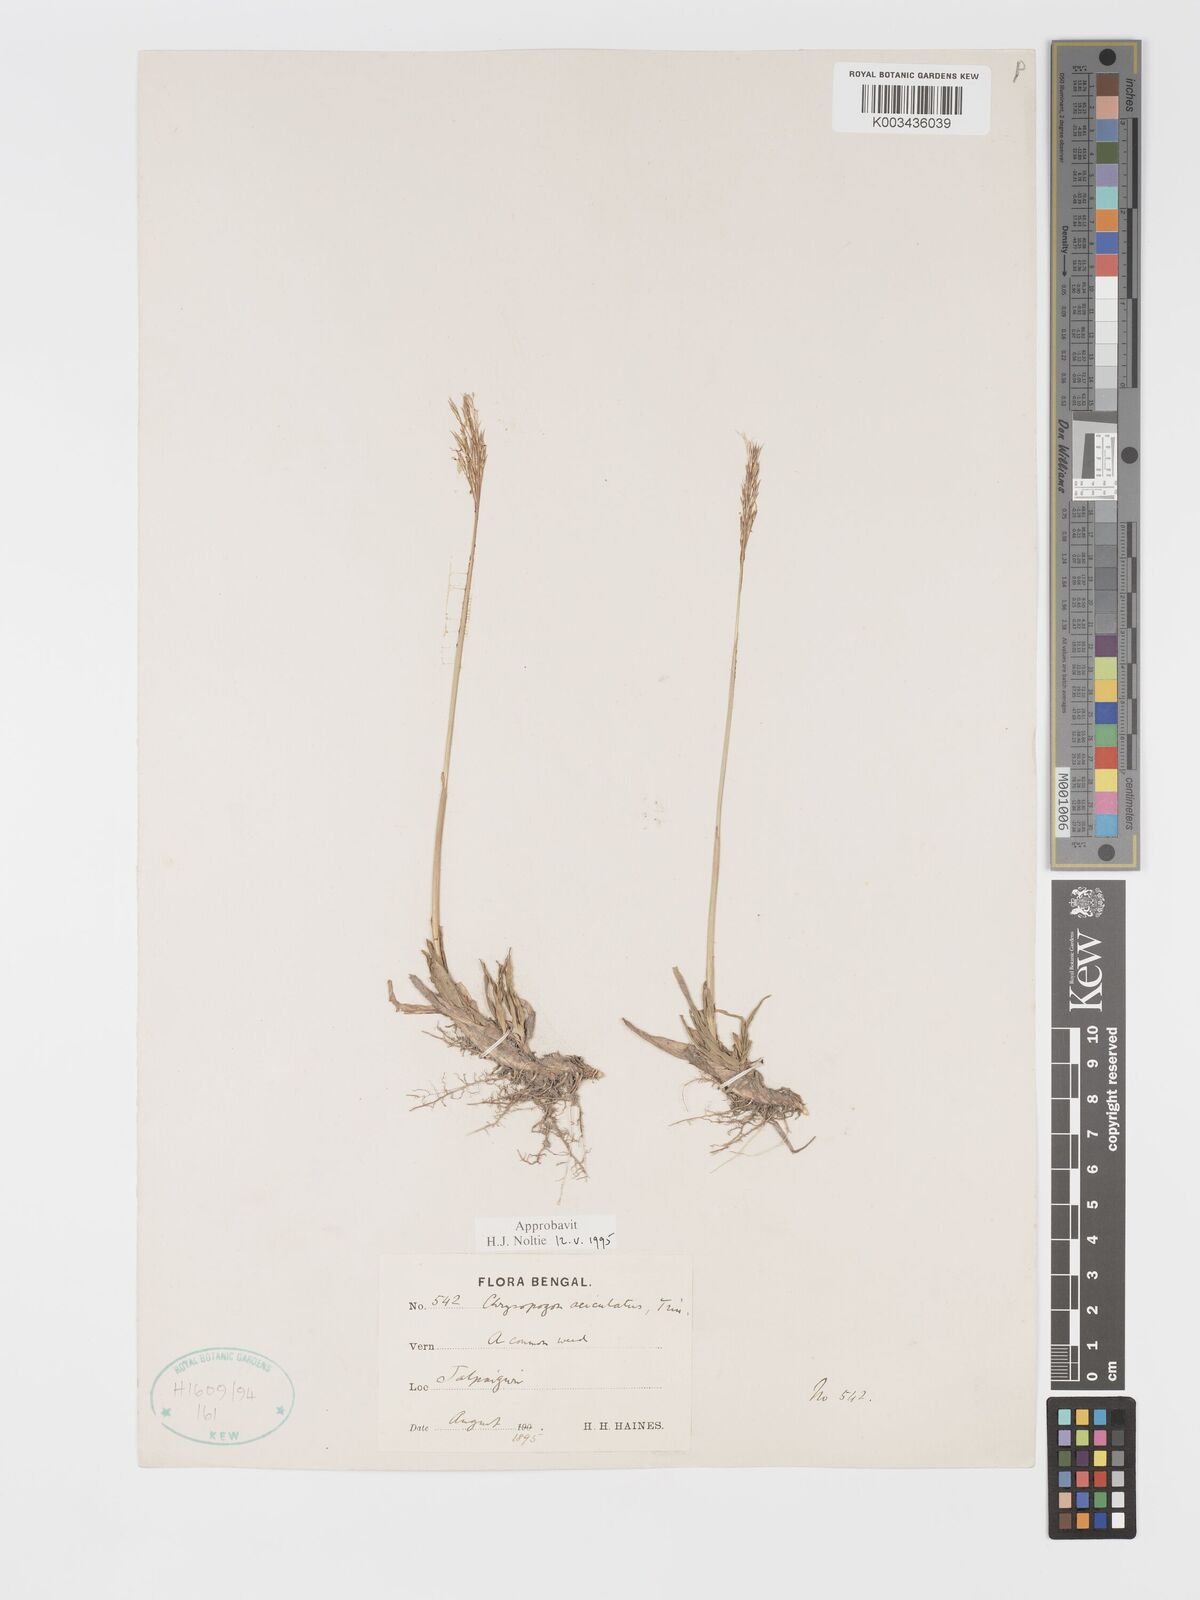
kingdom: Plantae
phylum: Tracheophyta
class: Liliopsida
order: Poales
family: Poaceae
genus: Chrysopogon
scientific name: Chrysopogon aciculatus
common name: Pilipiliula
